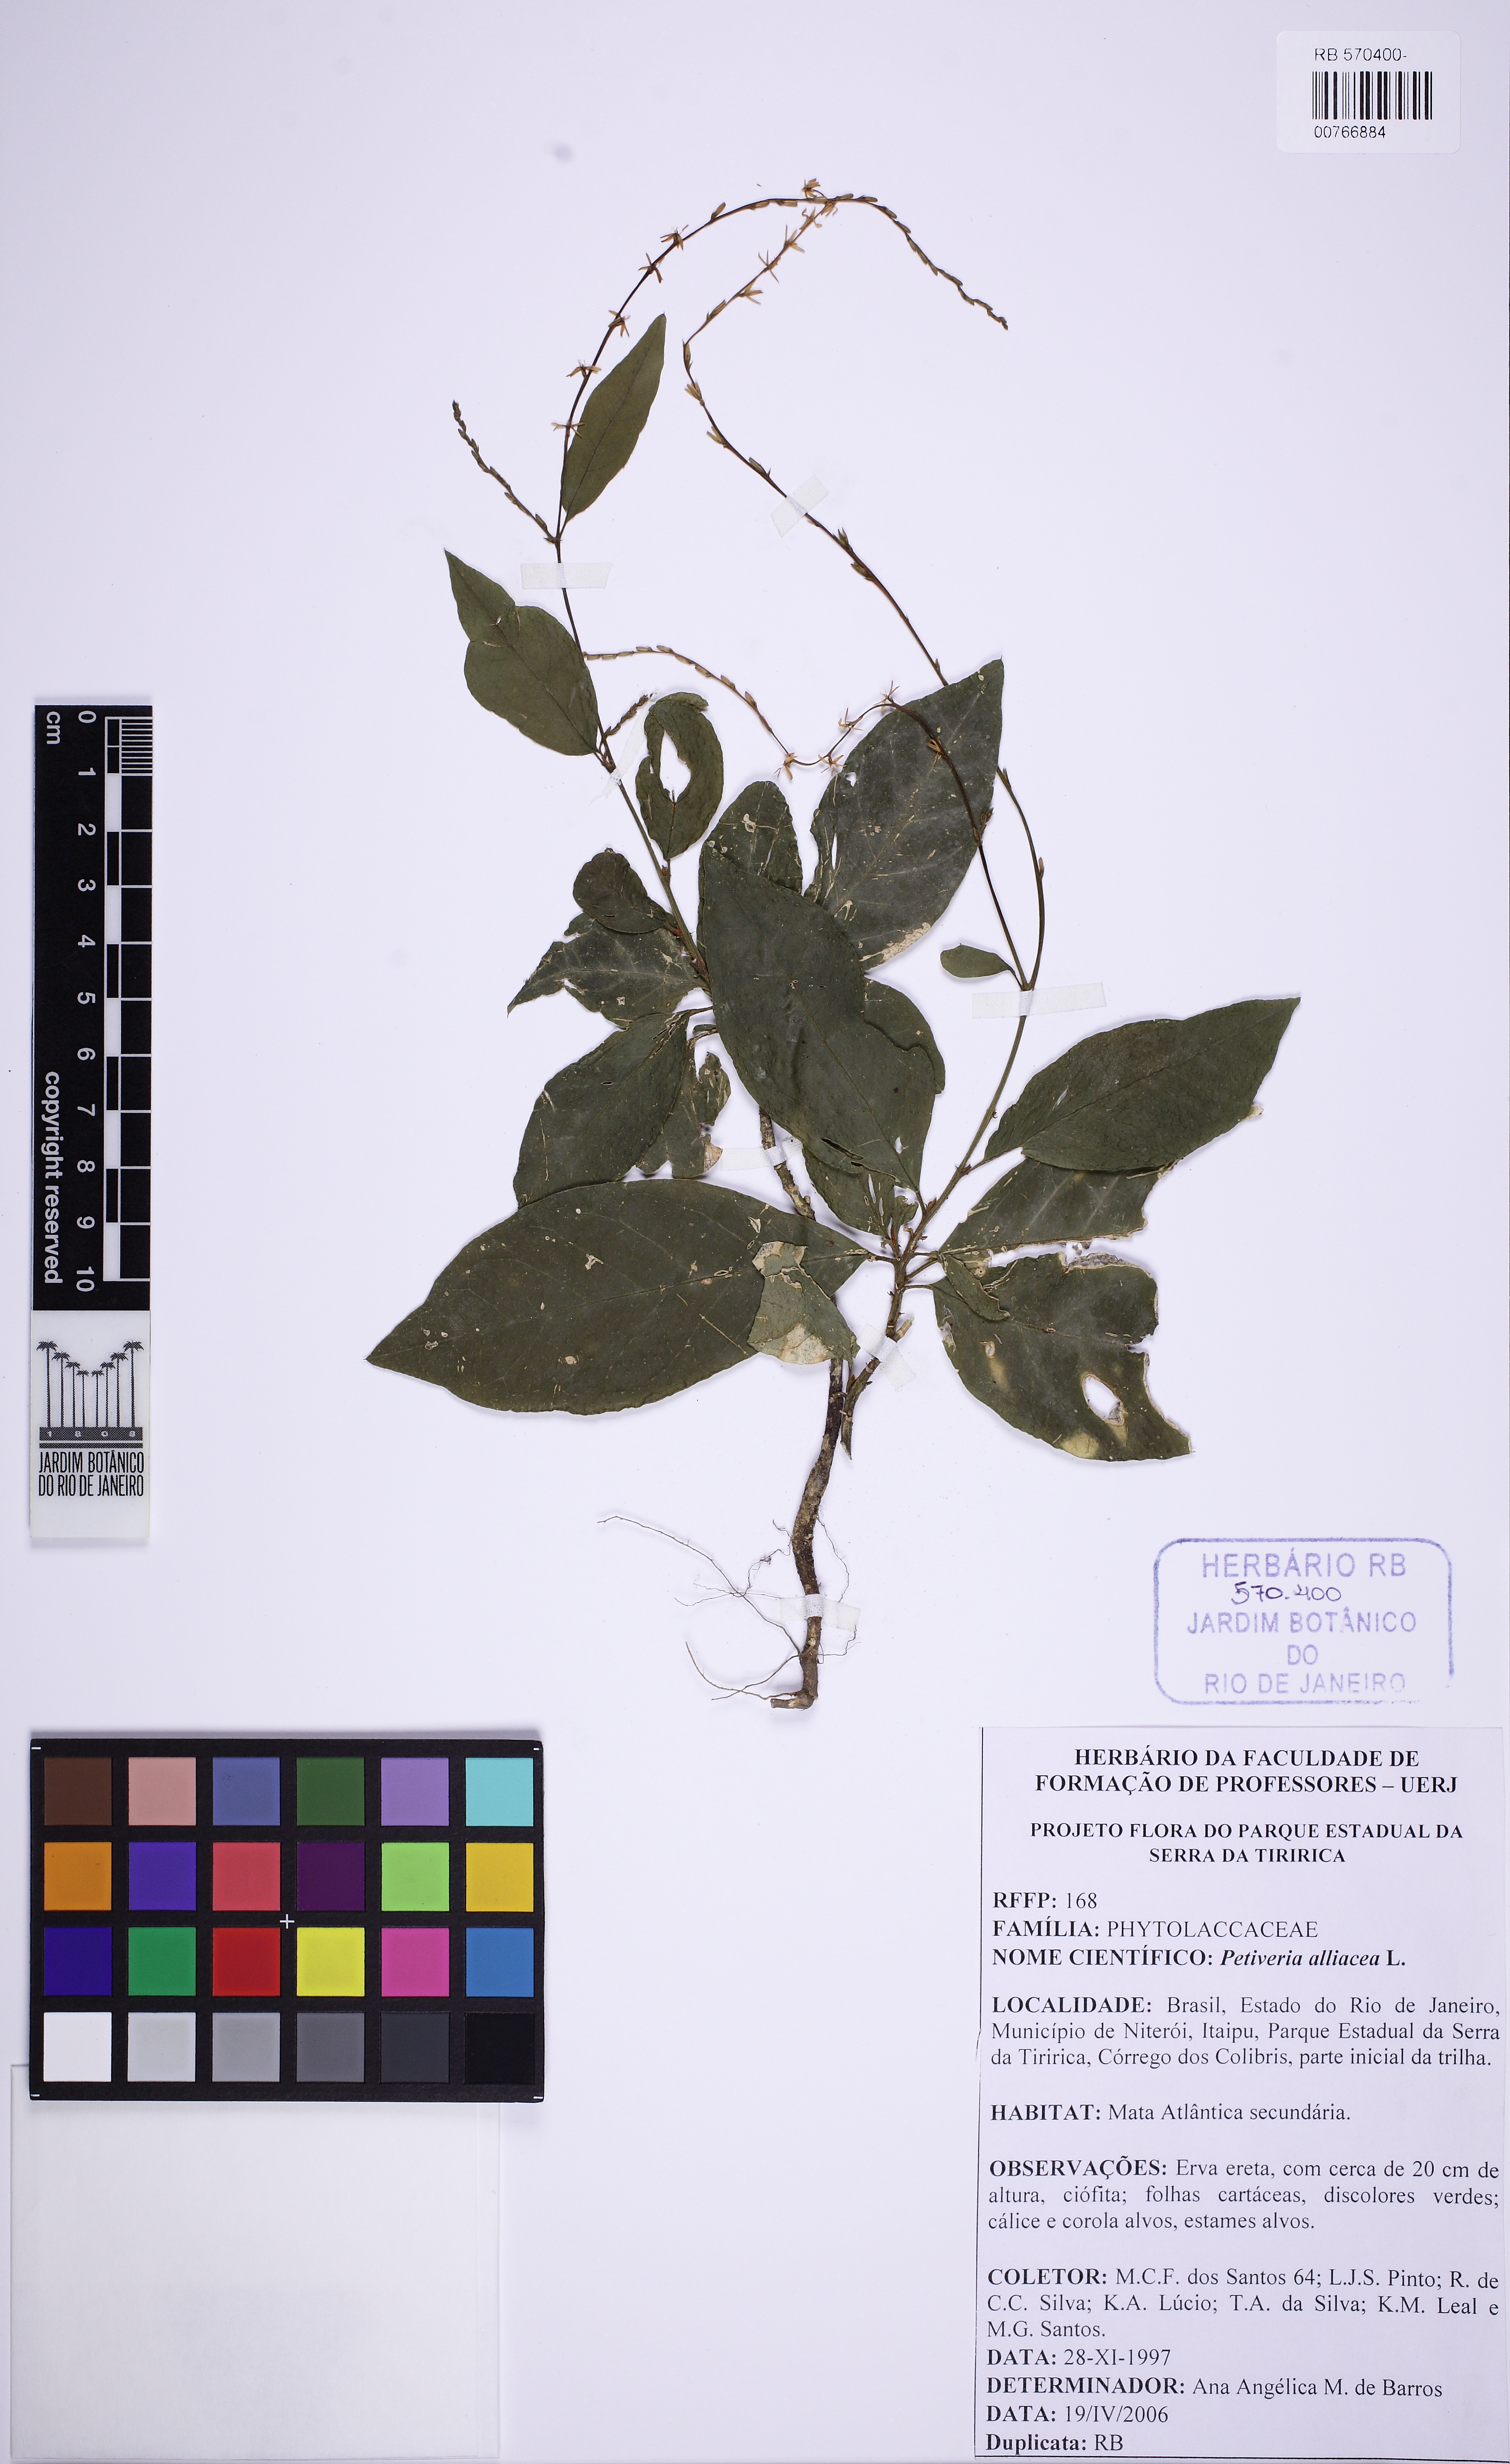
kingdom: Plantae
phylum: Tracheophyta
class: Magnoliopsida
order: Caryophyllales
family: Phytolaccaceae
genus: Petiveria
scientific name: Petiveria alliacea
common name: Garlicweed
